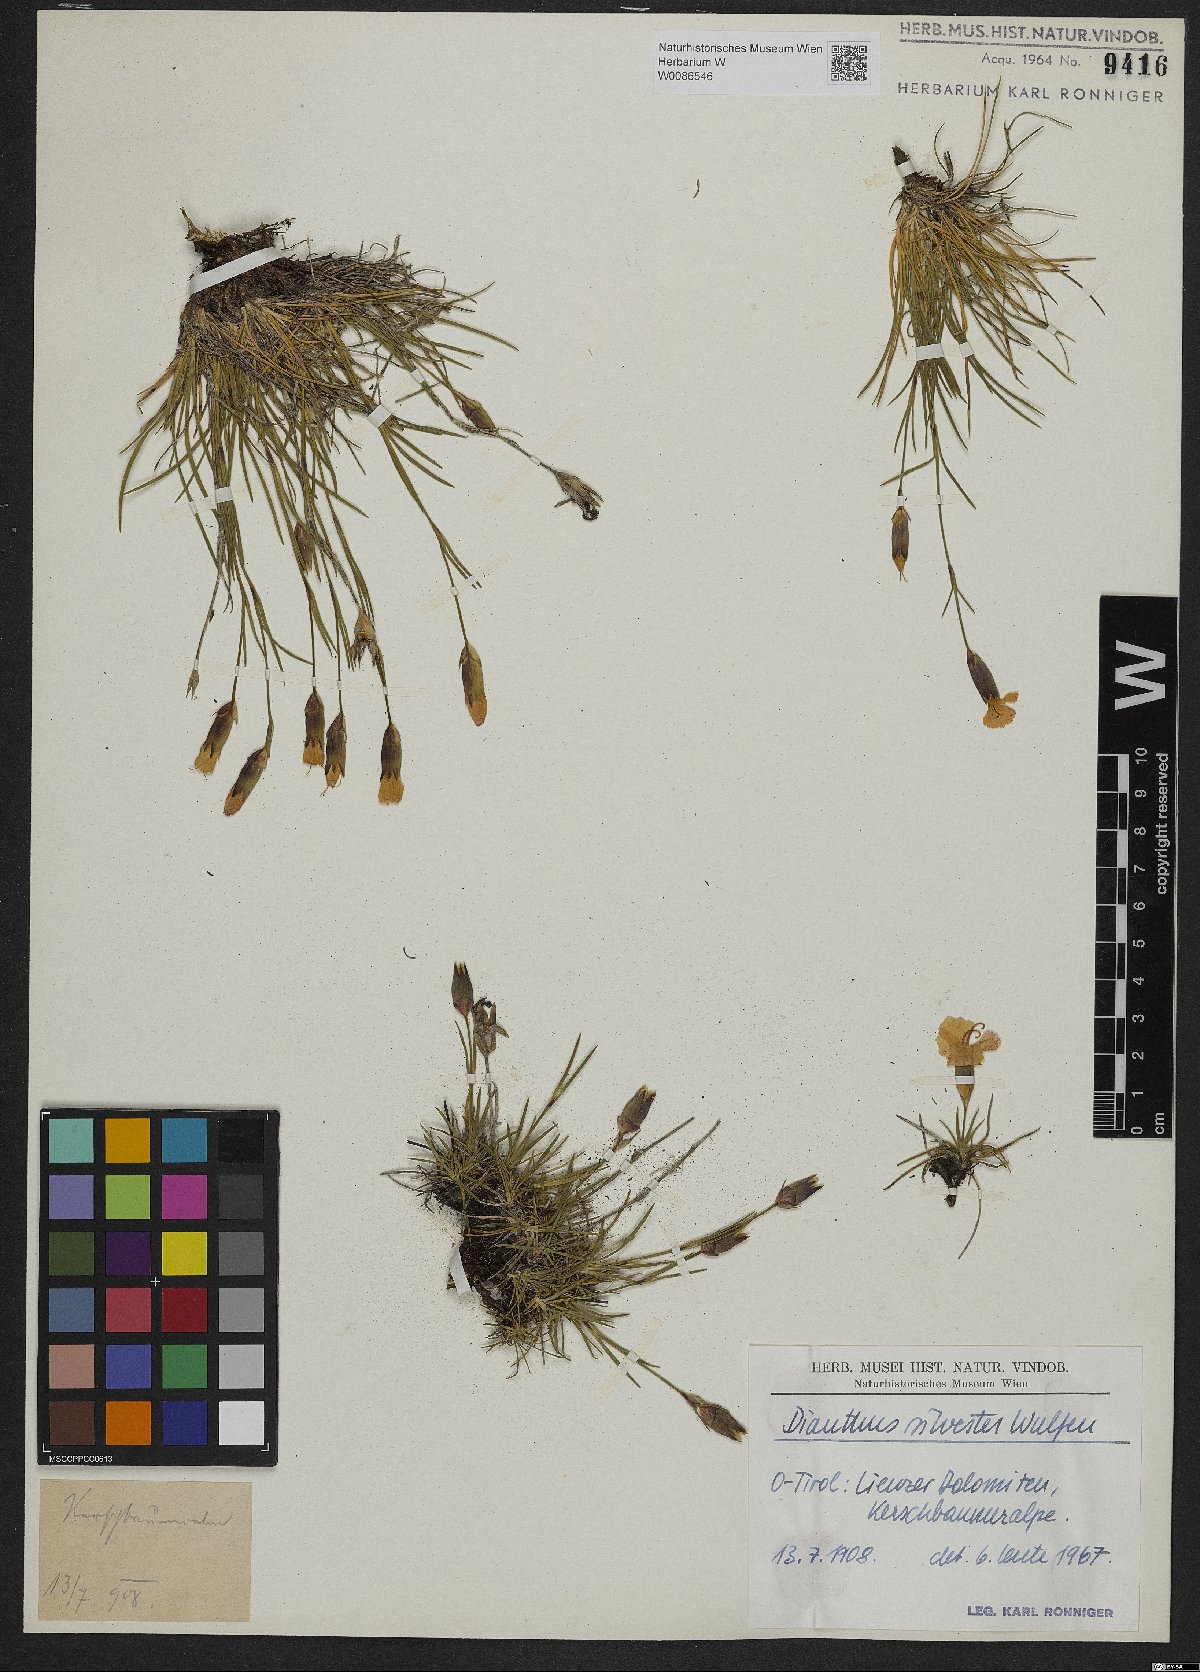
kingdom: Plantae
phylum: Tracheophyta
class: Magnoliopsida
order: Caryophyllales
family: Caryophyllaceae
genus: Dianthus
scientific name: Dianthus sylvestris
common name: Wood pink
